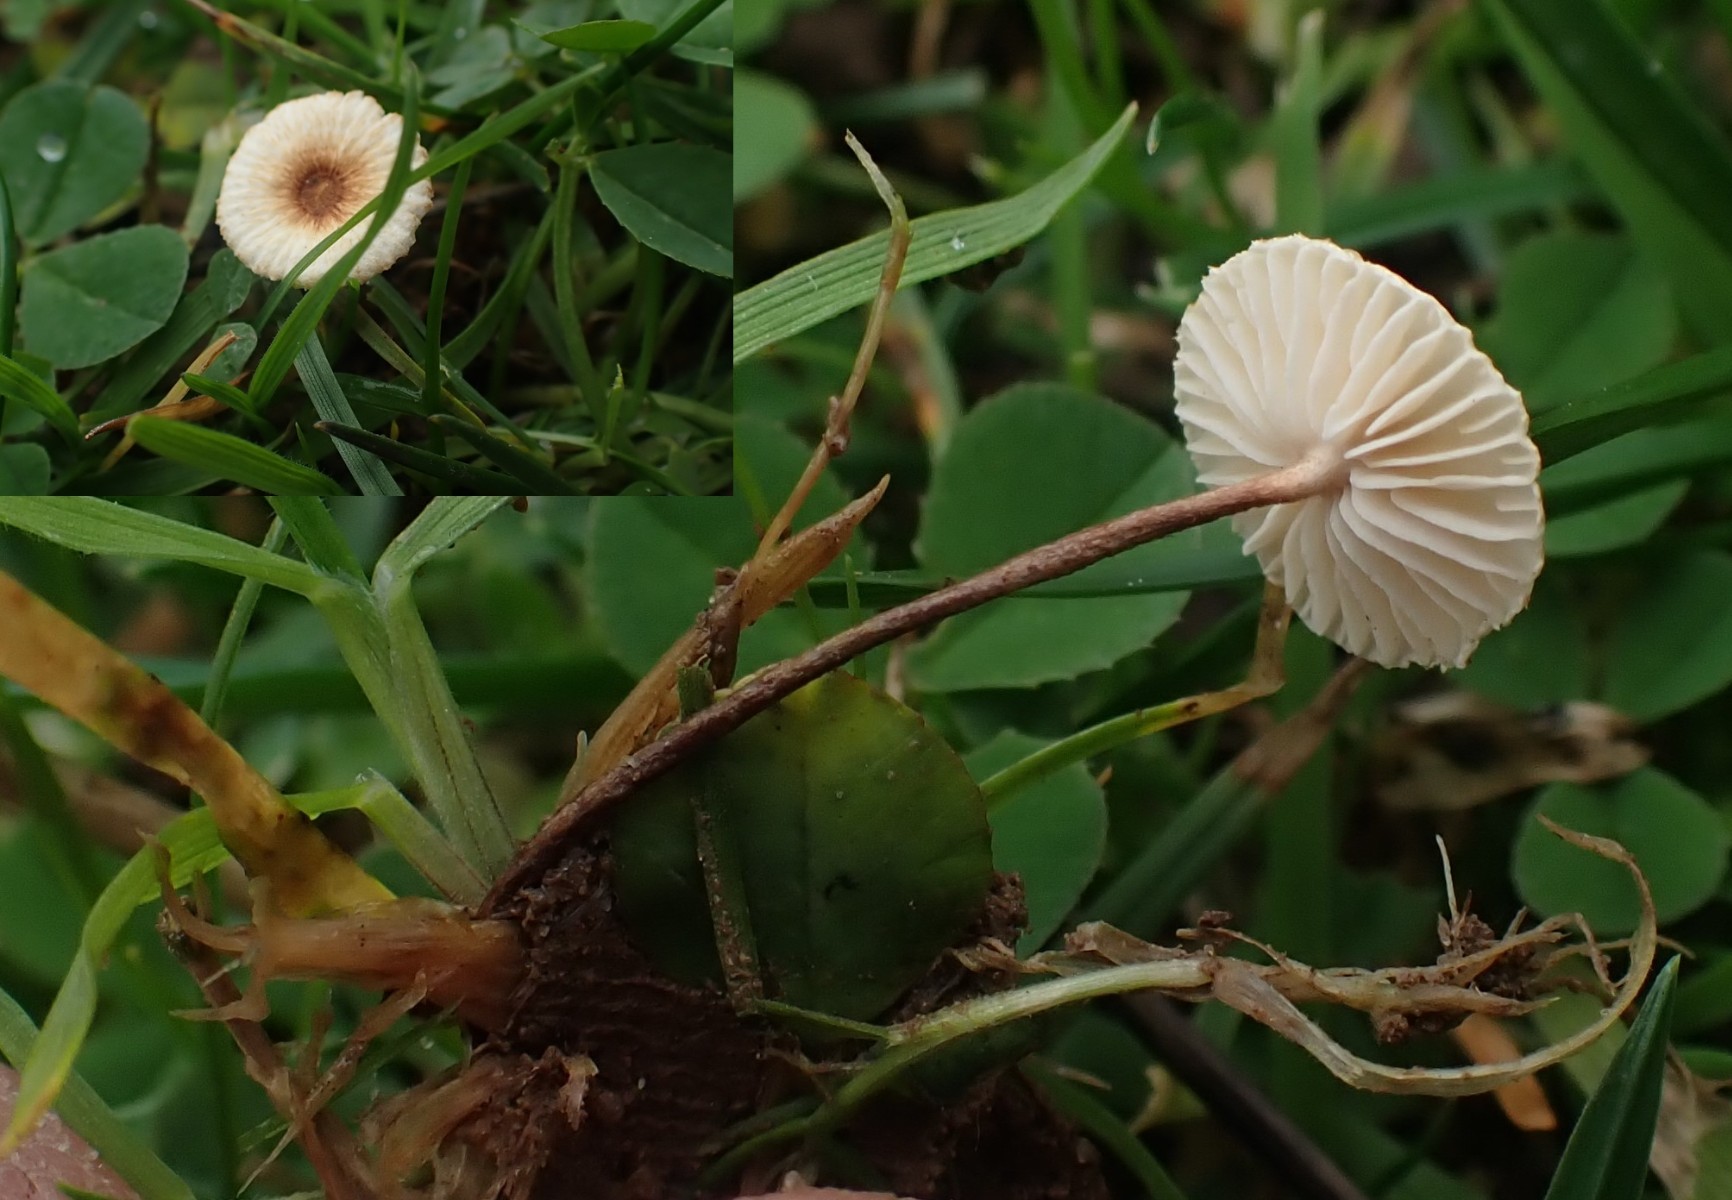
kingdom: Fungi
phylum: Basidiomycota
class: Agaricomycetes
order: Agaricales
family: Marasmiaceae
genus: Crinipellis
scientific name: Crinipellis scabella
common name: børstefod
